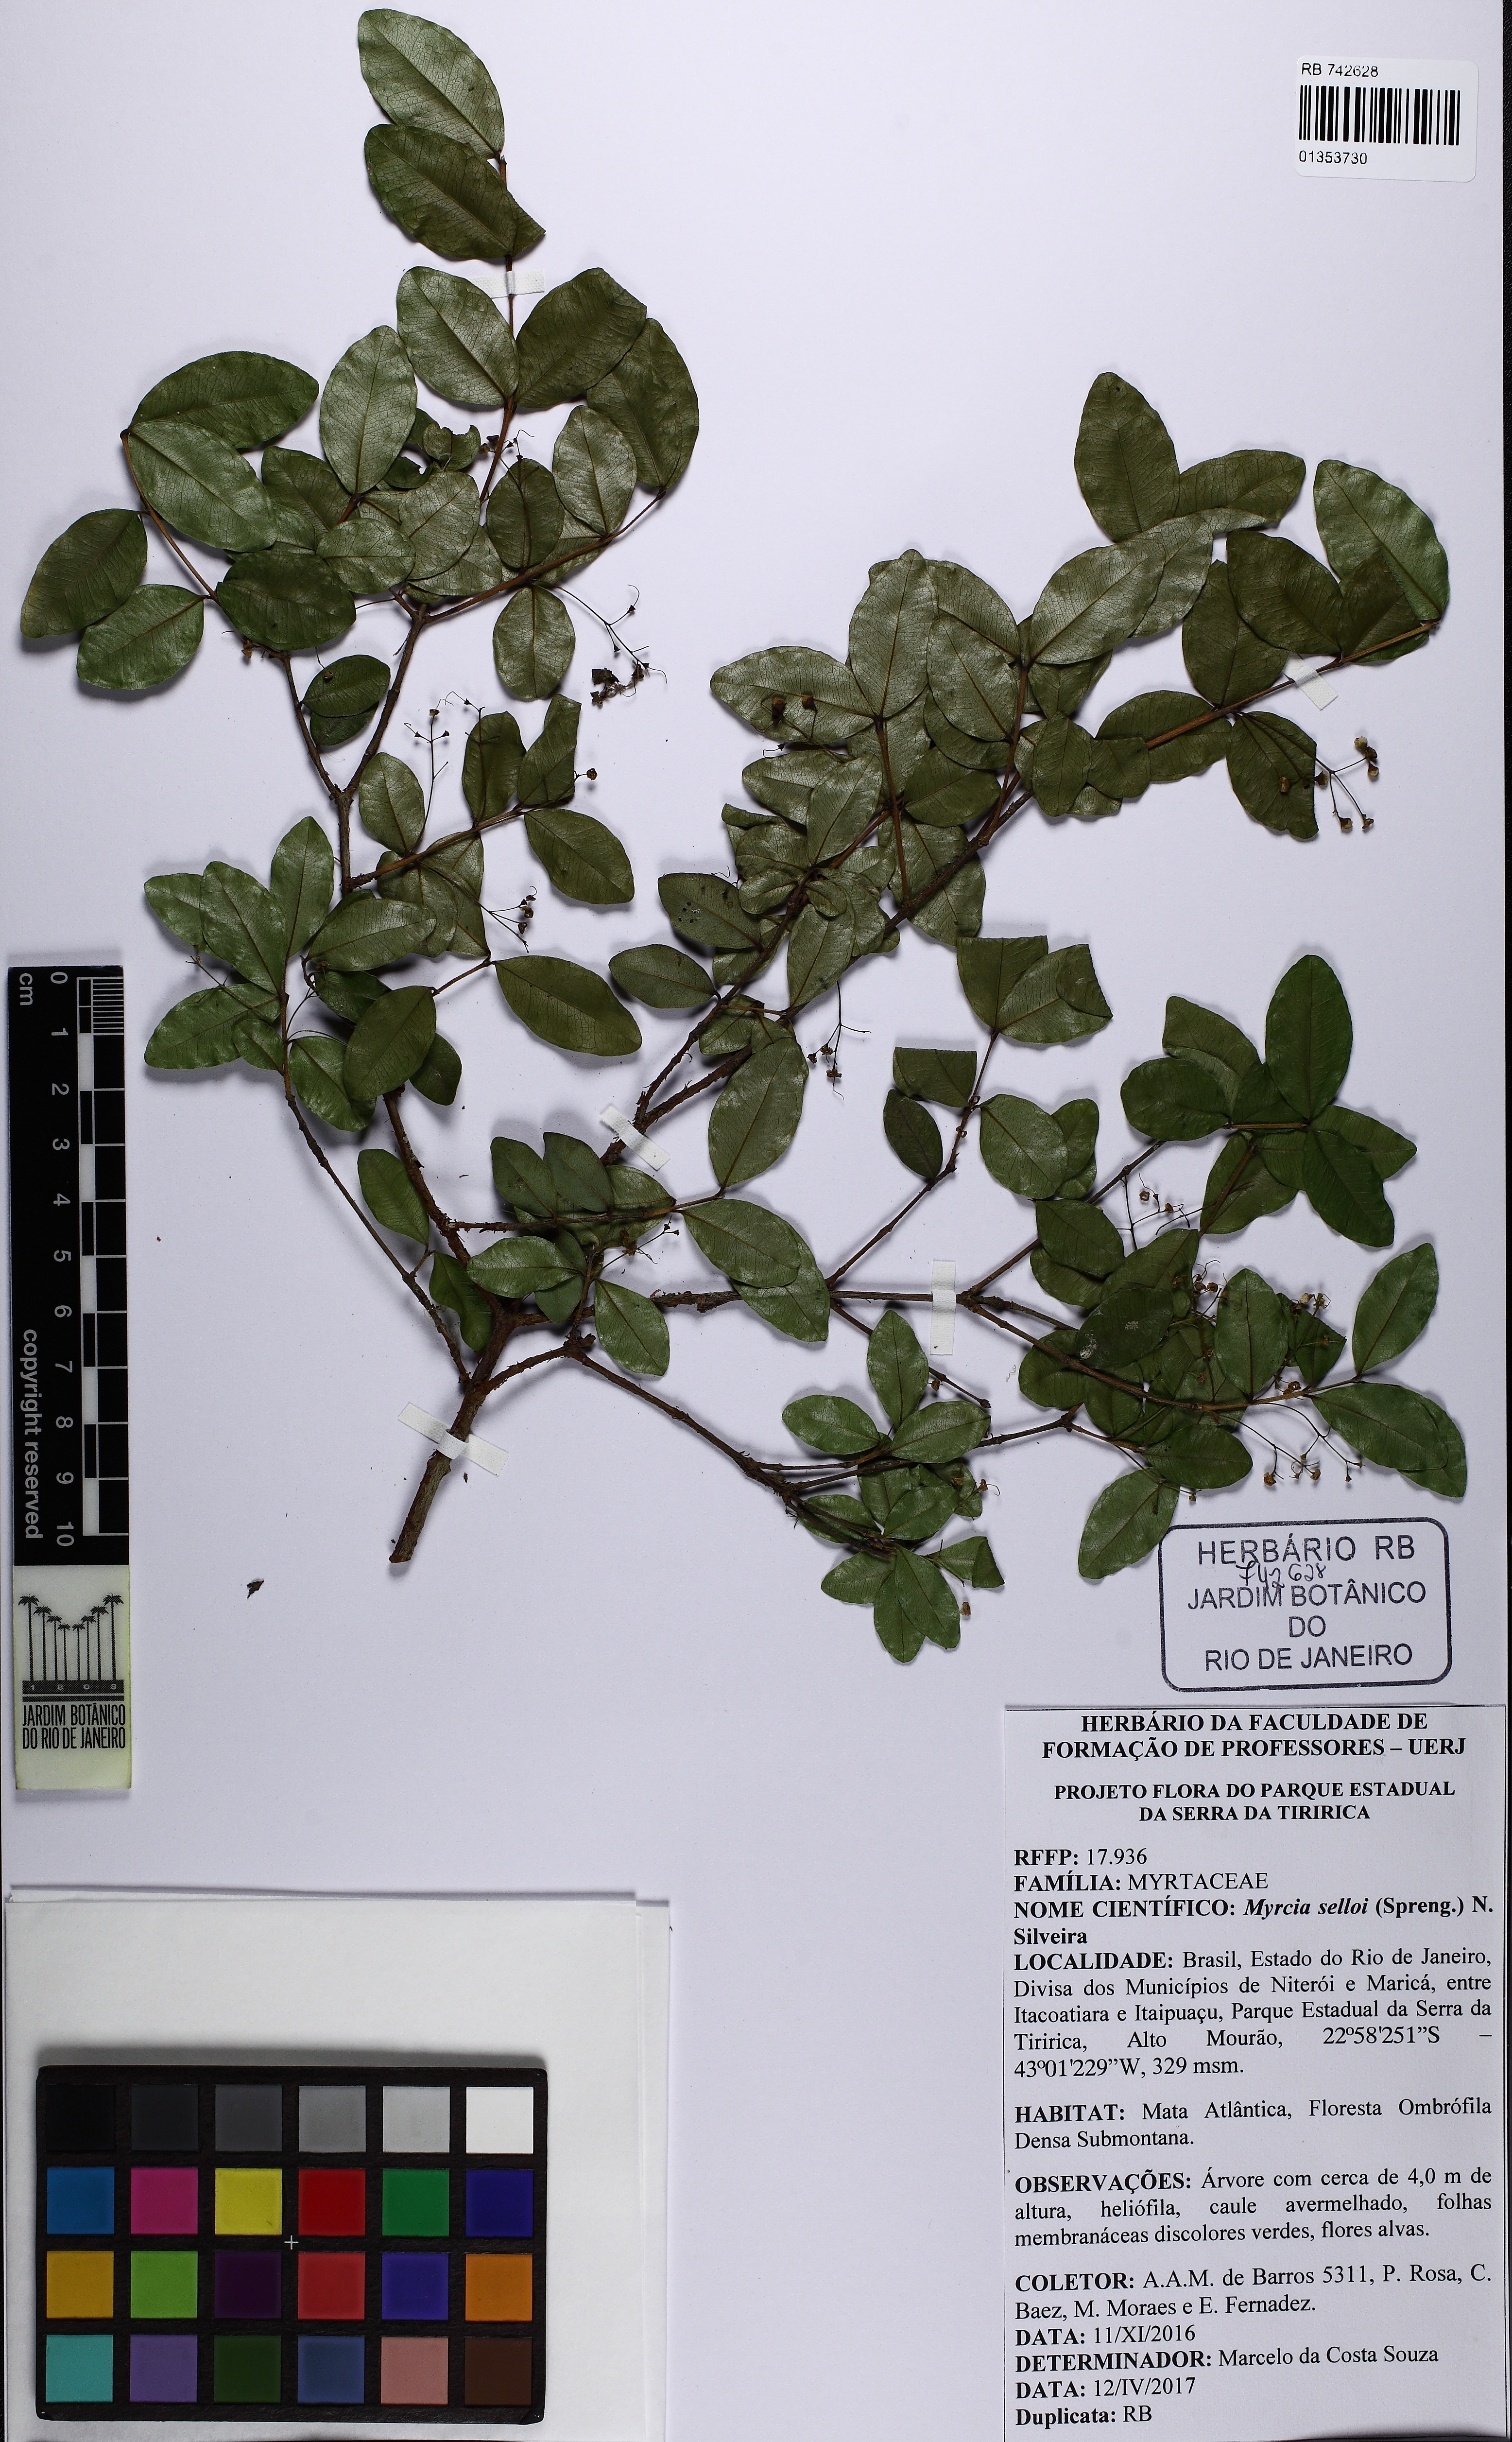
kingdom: Plantae
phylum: Tracheophyta
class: Magnoliopsida
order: Myrtales
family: Myrtaceae
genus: Myrcia
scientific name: Myrcia selloi
